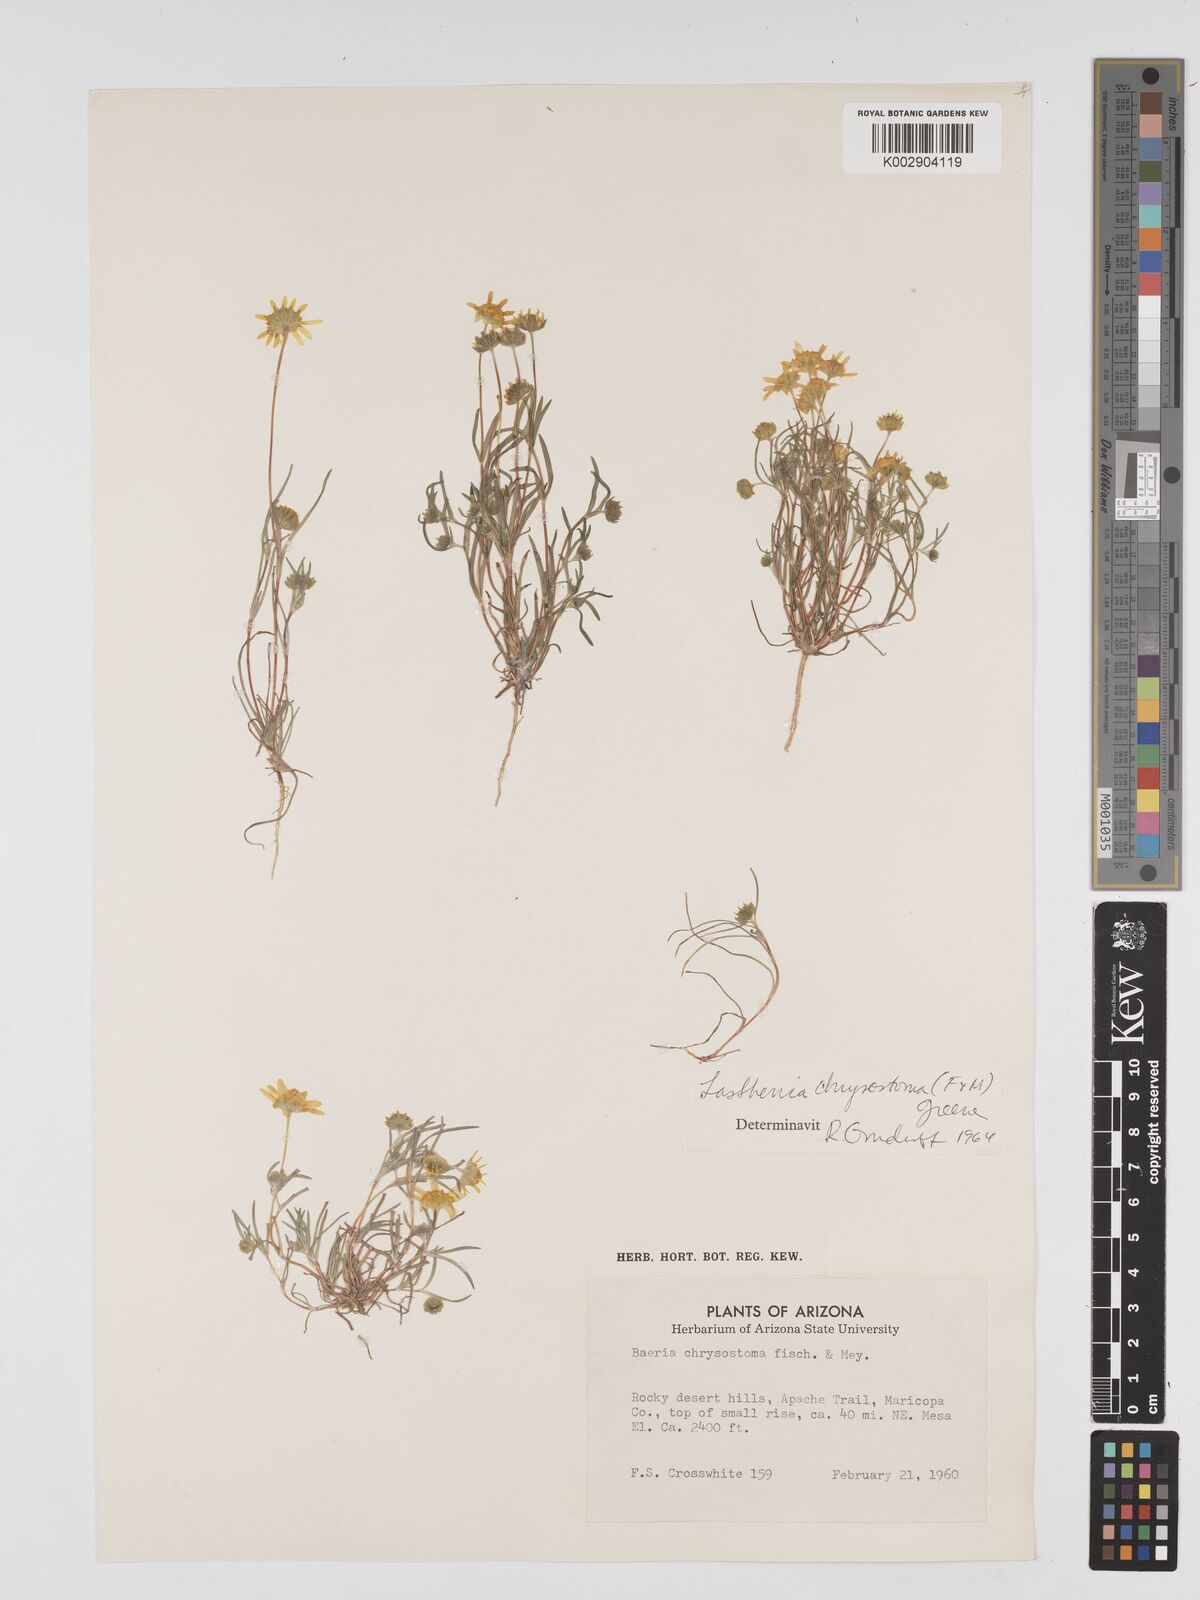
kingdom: Plantae
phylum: Tracheophyta
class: Magnoliopsida
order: Asterales
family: Asteraceae
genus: Lasthenia
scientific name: Lasthenia californica
